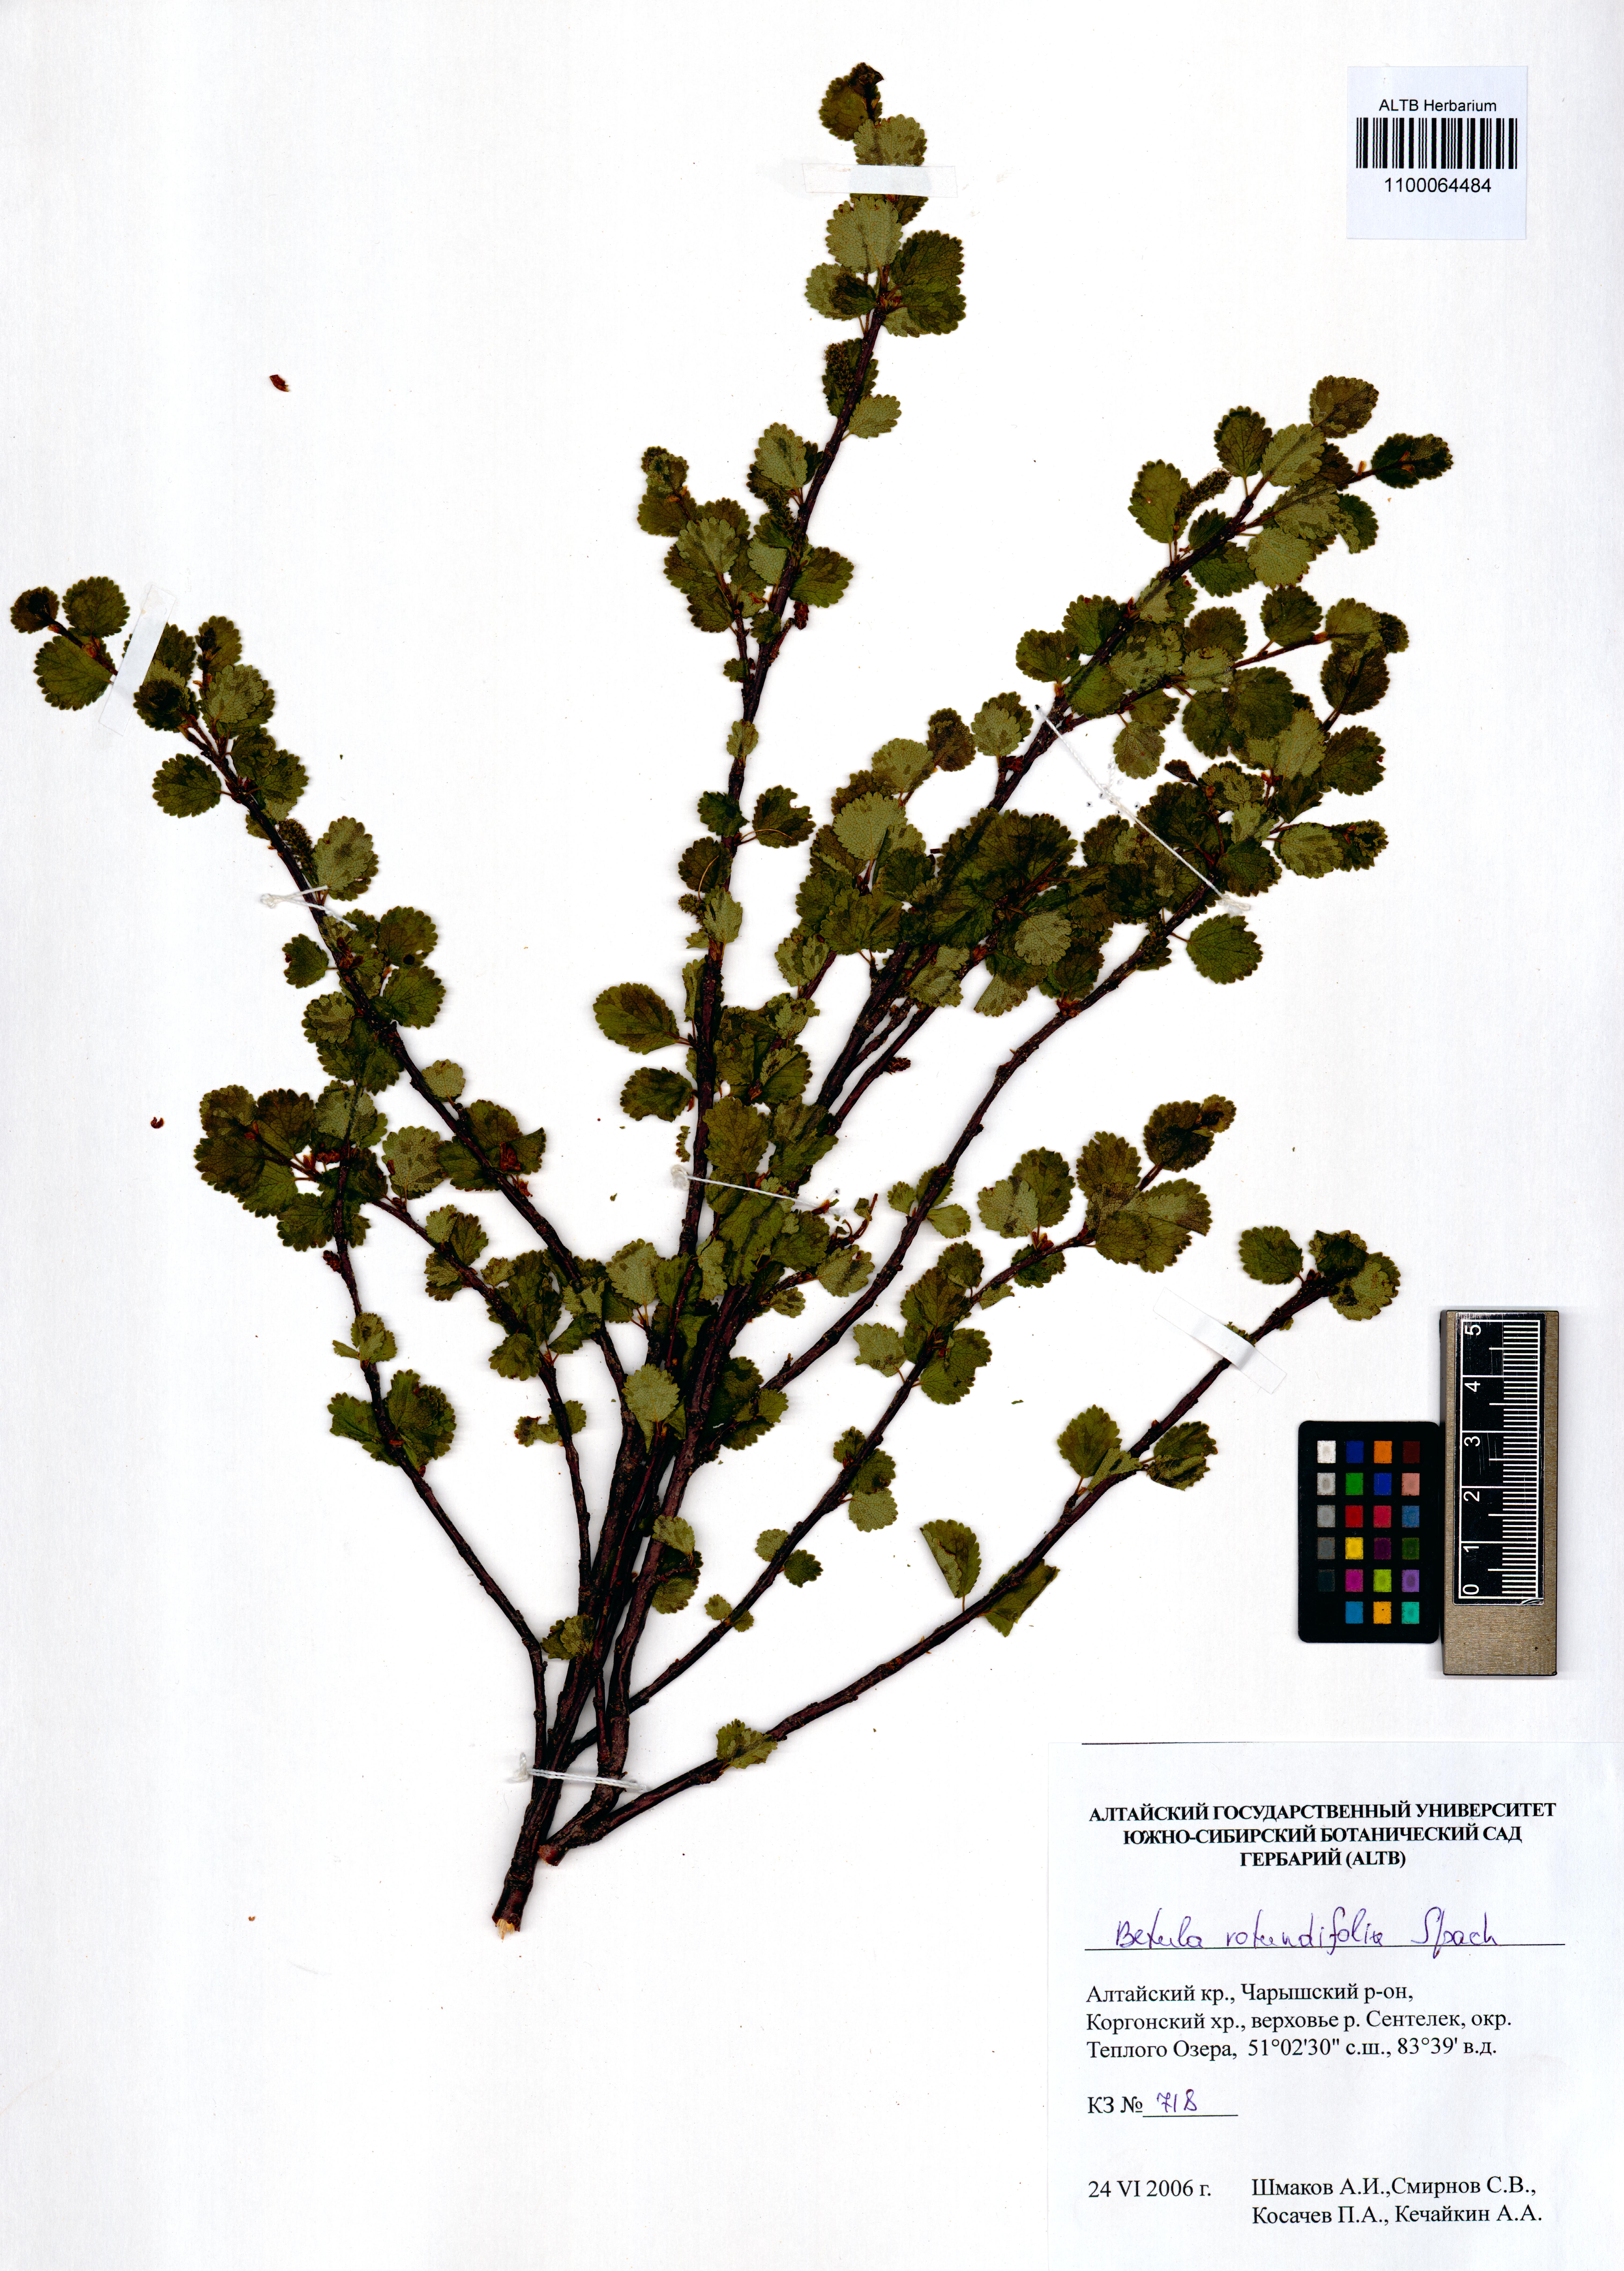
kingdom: Plantae
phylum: Tracheophyta
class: Magnoliopsida
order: Fagales
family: Betulaceae
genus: Betula
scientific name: Betula glandulosa
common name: Dwarf birch
